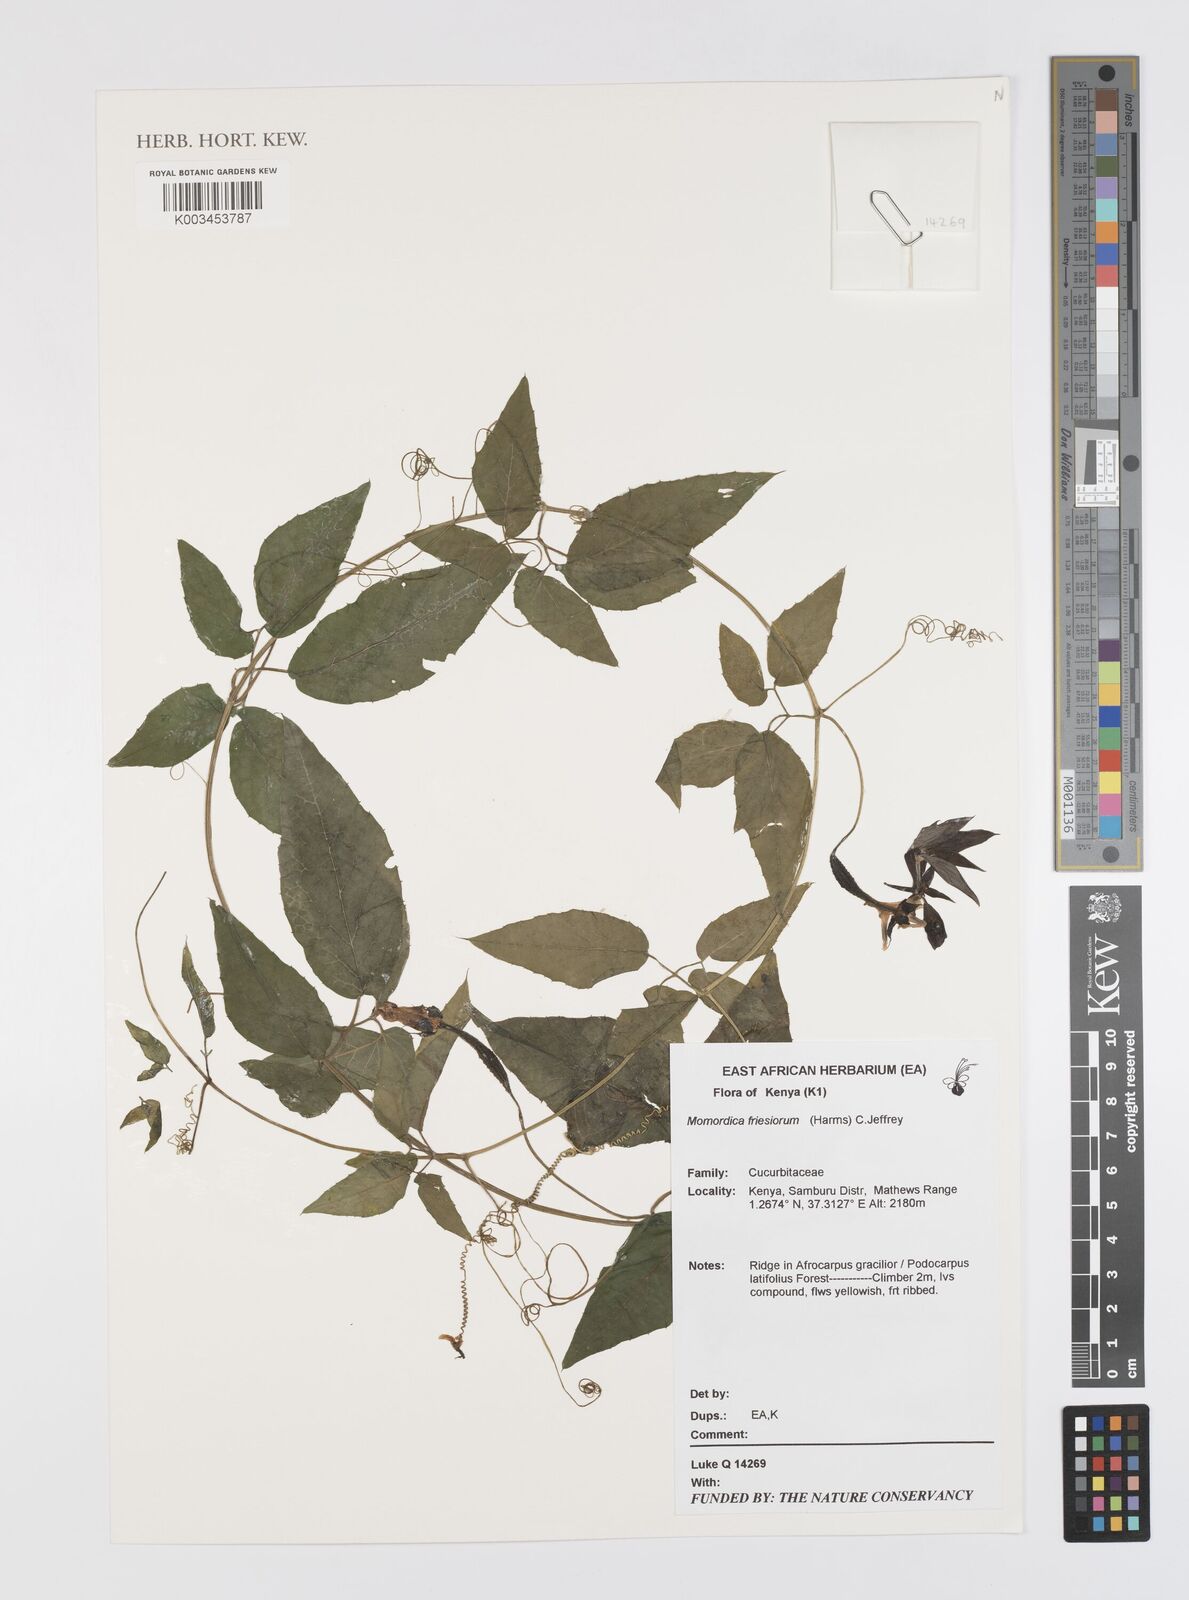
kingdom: Plantae
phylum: Tracheophyta
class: Magnoliopsida
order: Cucurbitales
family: Cucurbitaceae
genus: Momordica
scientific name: Momordica friesiorum
